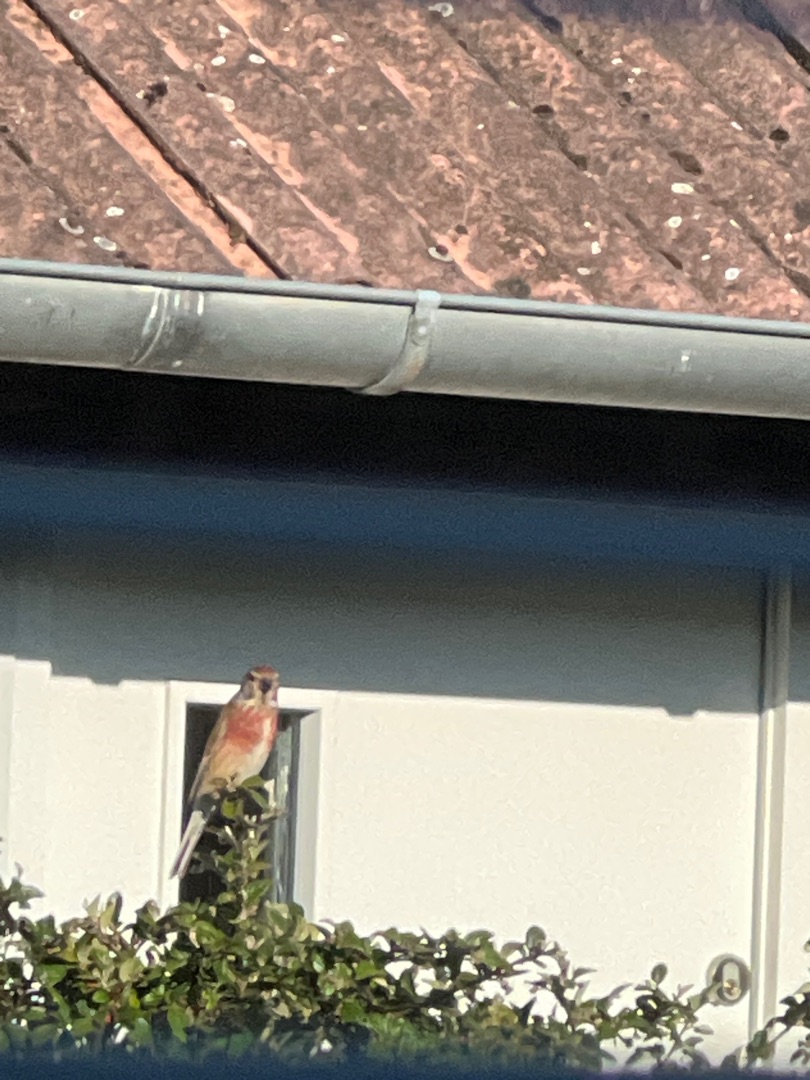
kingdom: Animalia
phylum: Chordata
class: Aves
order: Passeriformes
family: Fringillidae
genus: Linaria
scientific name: Linaria cannabina
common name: Tornirisk
